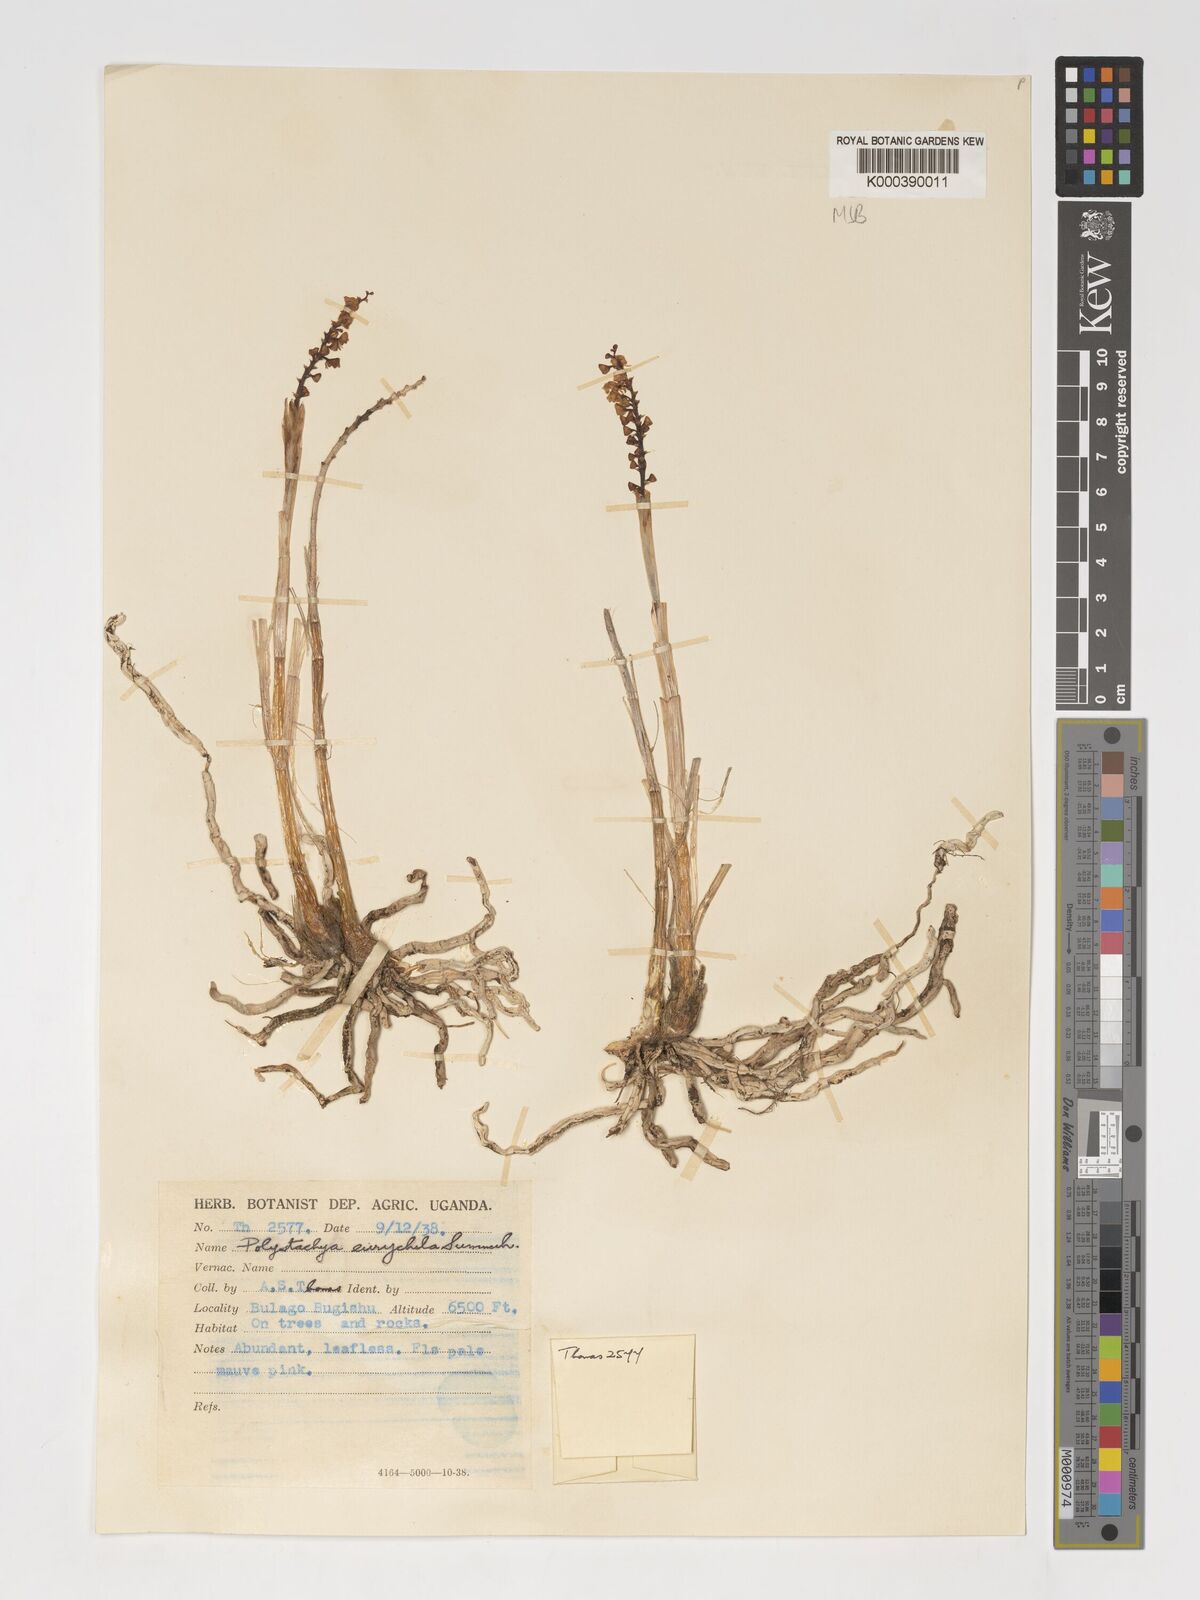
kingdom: Plantae
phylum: Tracheophyta
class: Liliopsida
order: Asparagales
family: Orchidaceae
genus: Polystachya
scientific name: Polystachya eurychila
